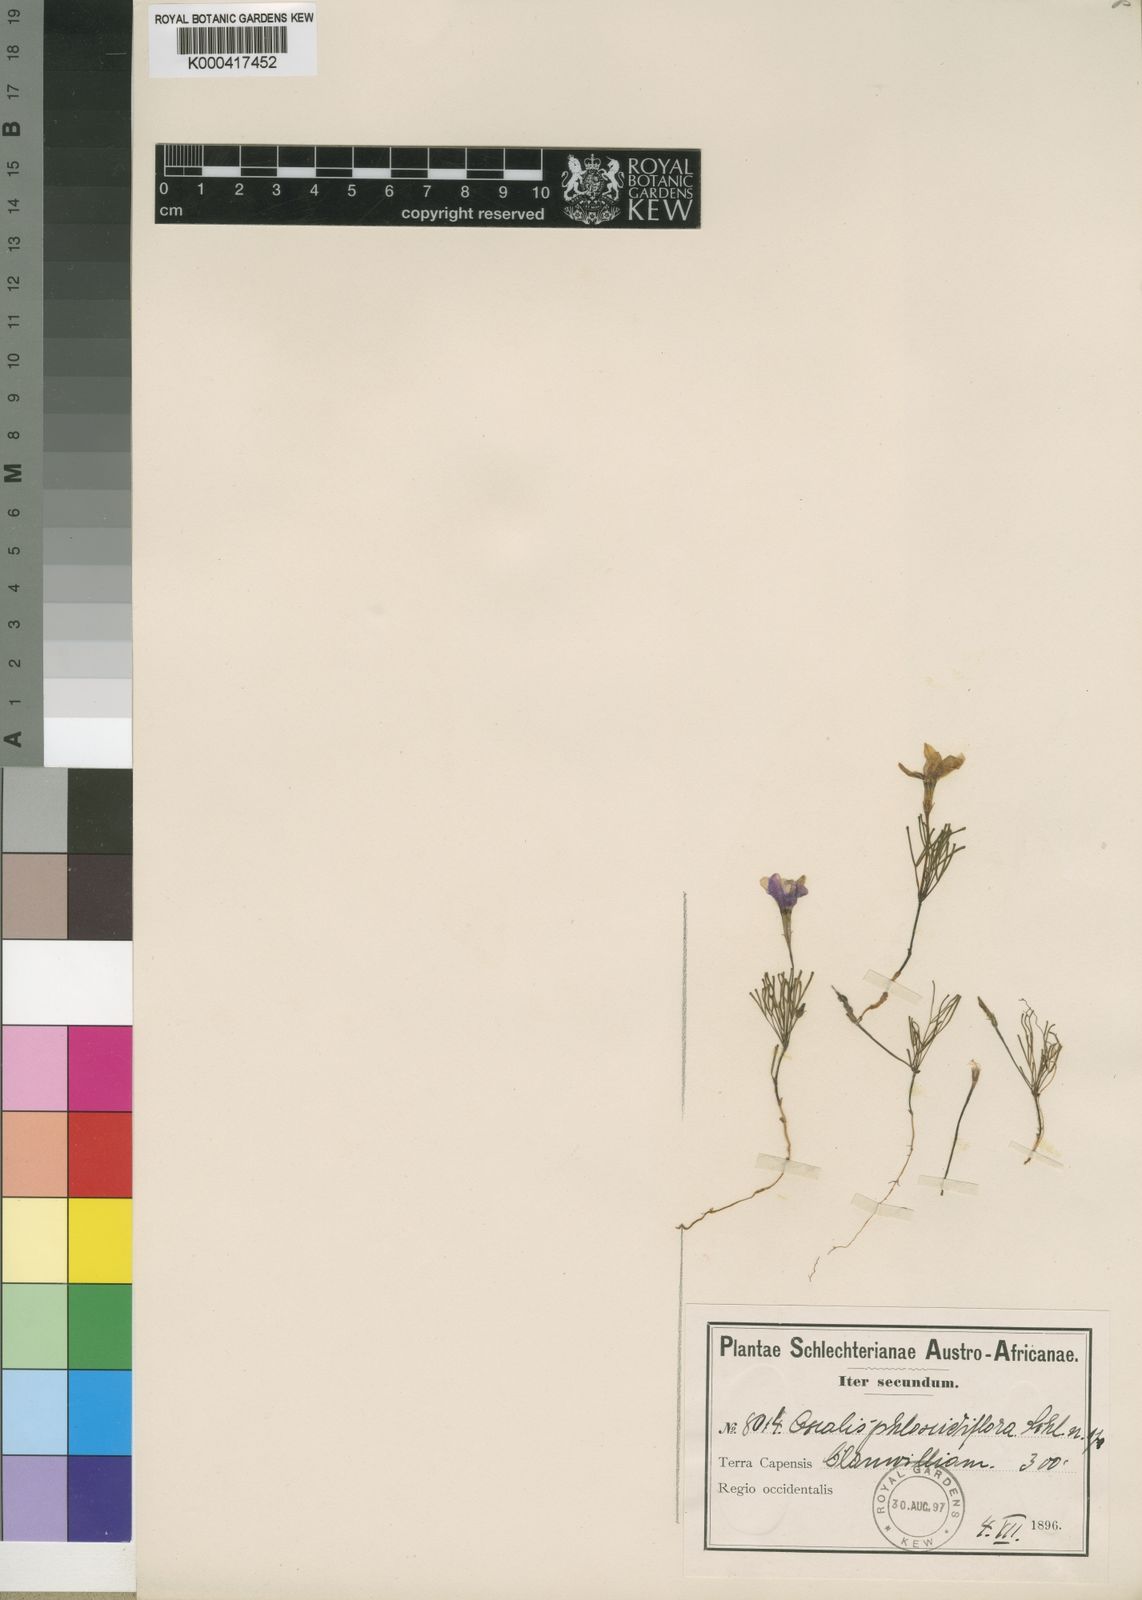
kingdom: Plantae
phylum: Tracheophyta
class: Magnoliopsida
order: Oxalidales
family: Oxalidaceae
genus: Oxalis
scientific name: Oxalis phloxidiflora
